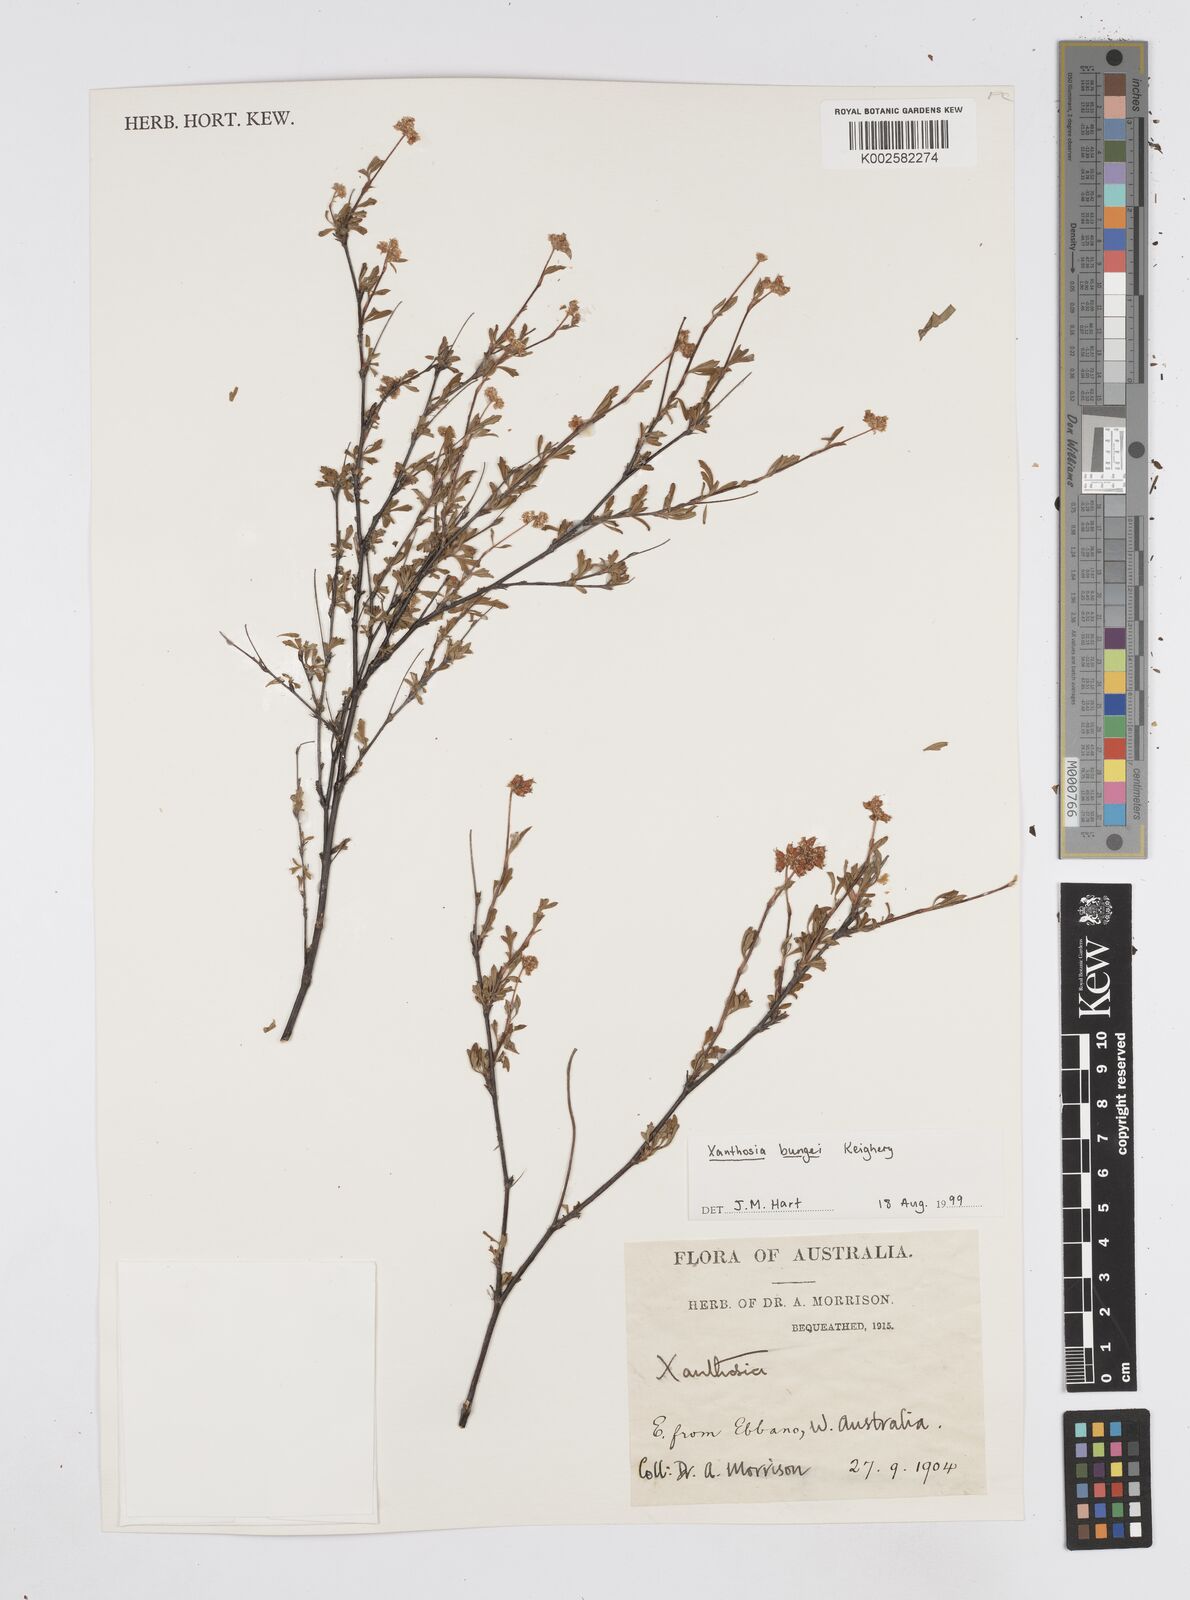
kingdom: Plantae
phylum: Tracheophyta
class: Magnoliopsida
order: Apiales
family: Apiaceae
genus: Xanthosia
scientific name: Xanthosia kochii
